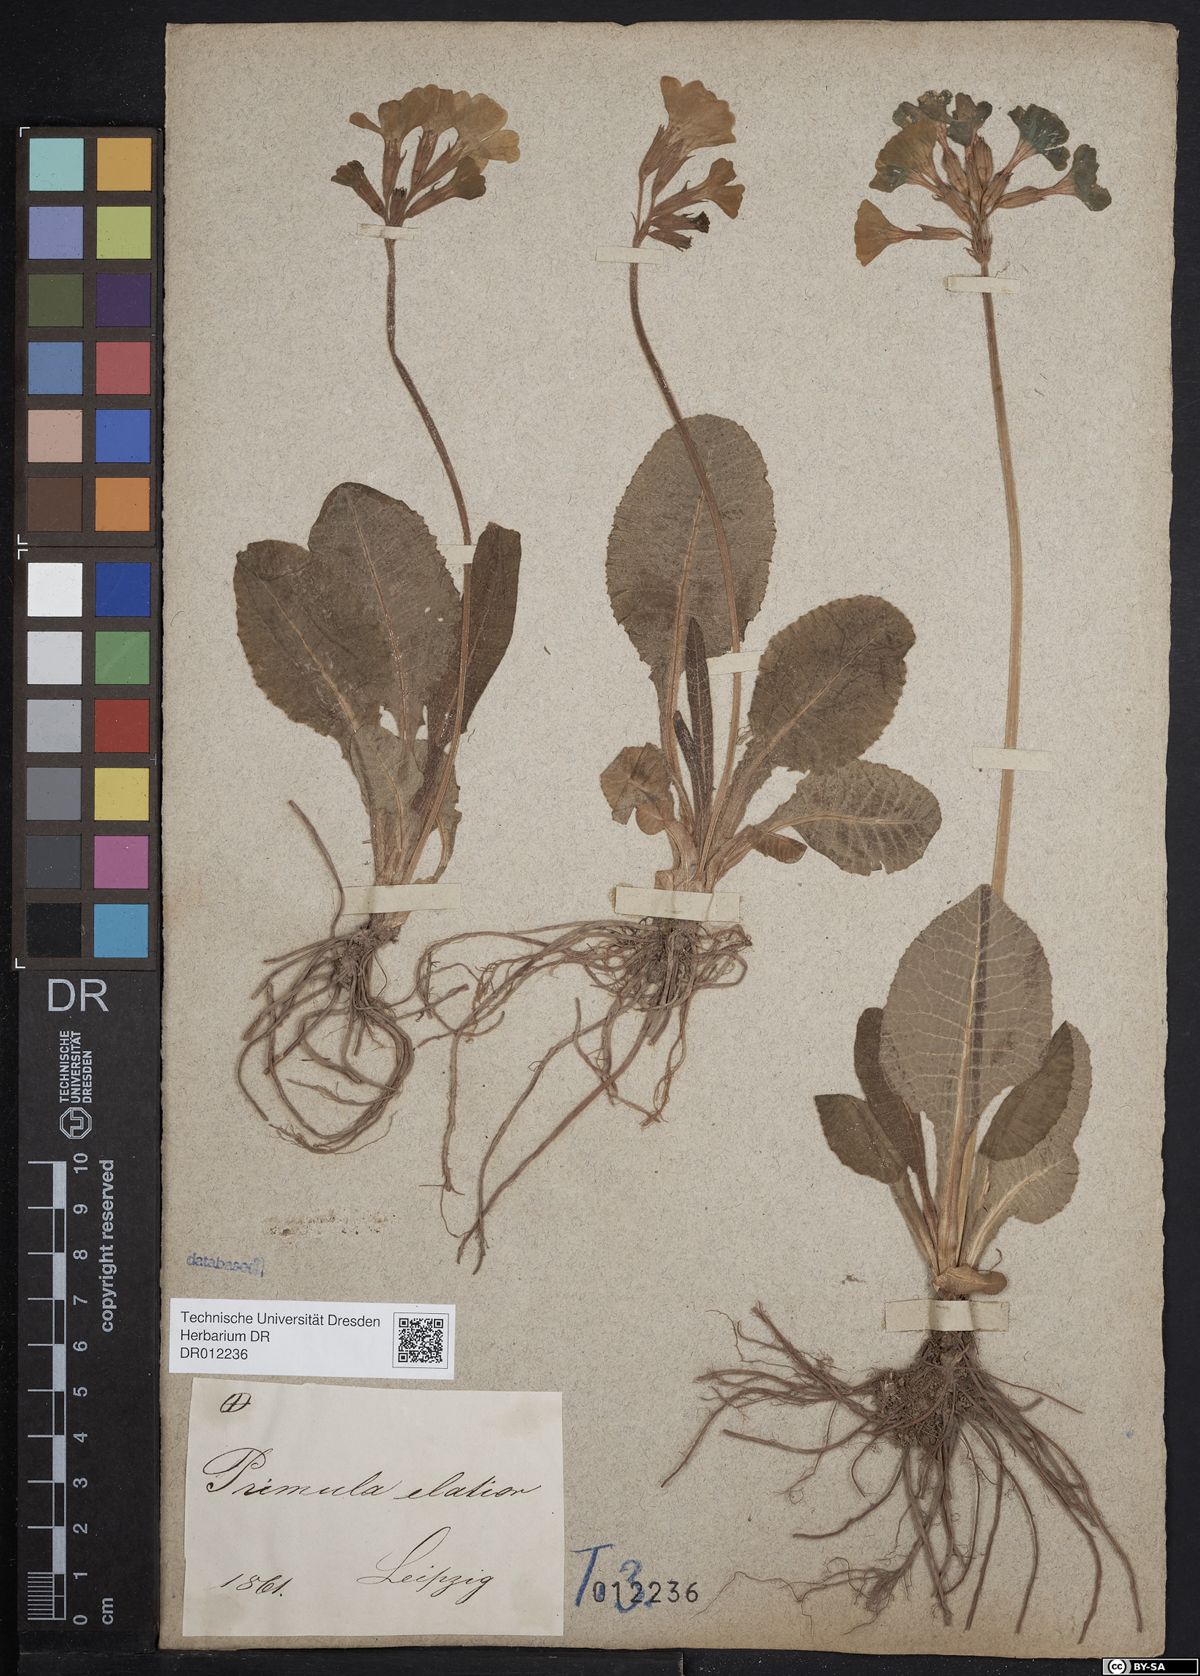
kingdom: Plantae
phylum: Tracheophyta
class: Magnoliopsida
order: Ericales
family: Primulaceae
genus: Primula
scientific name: Primula elatior
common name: Oxlip
